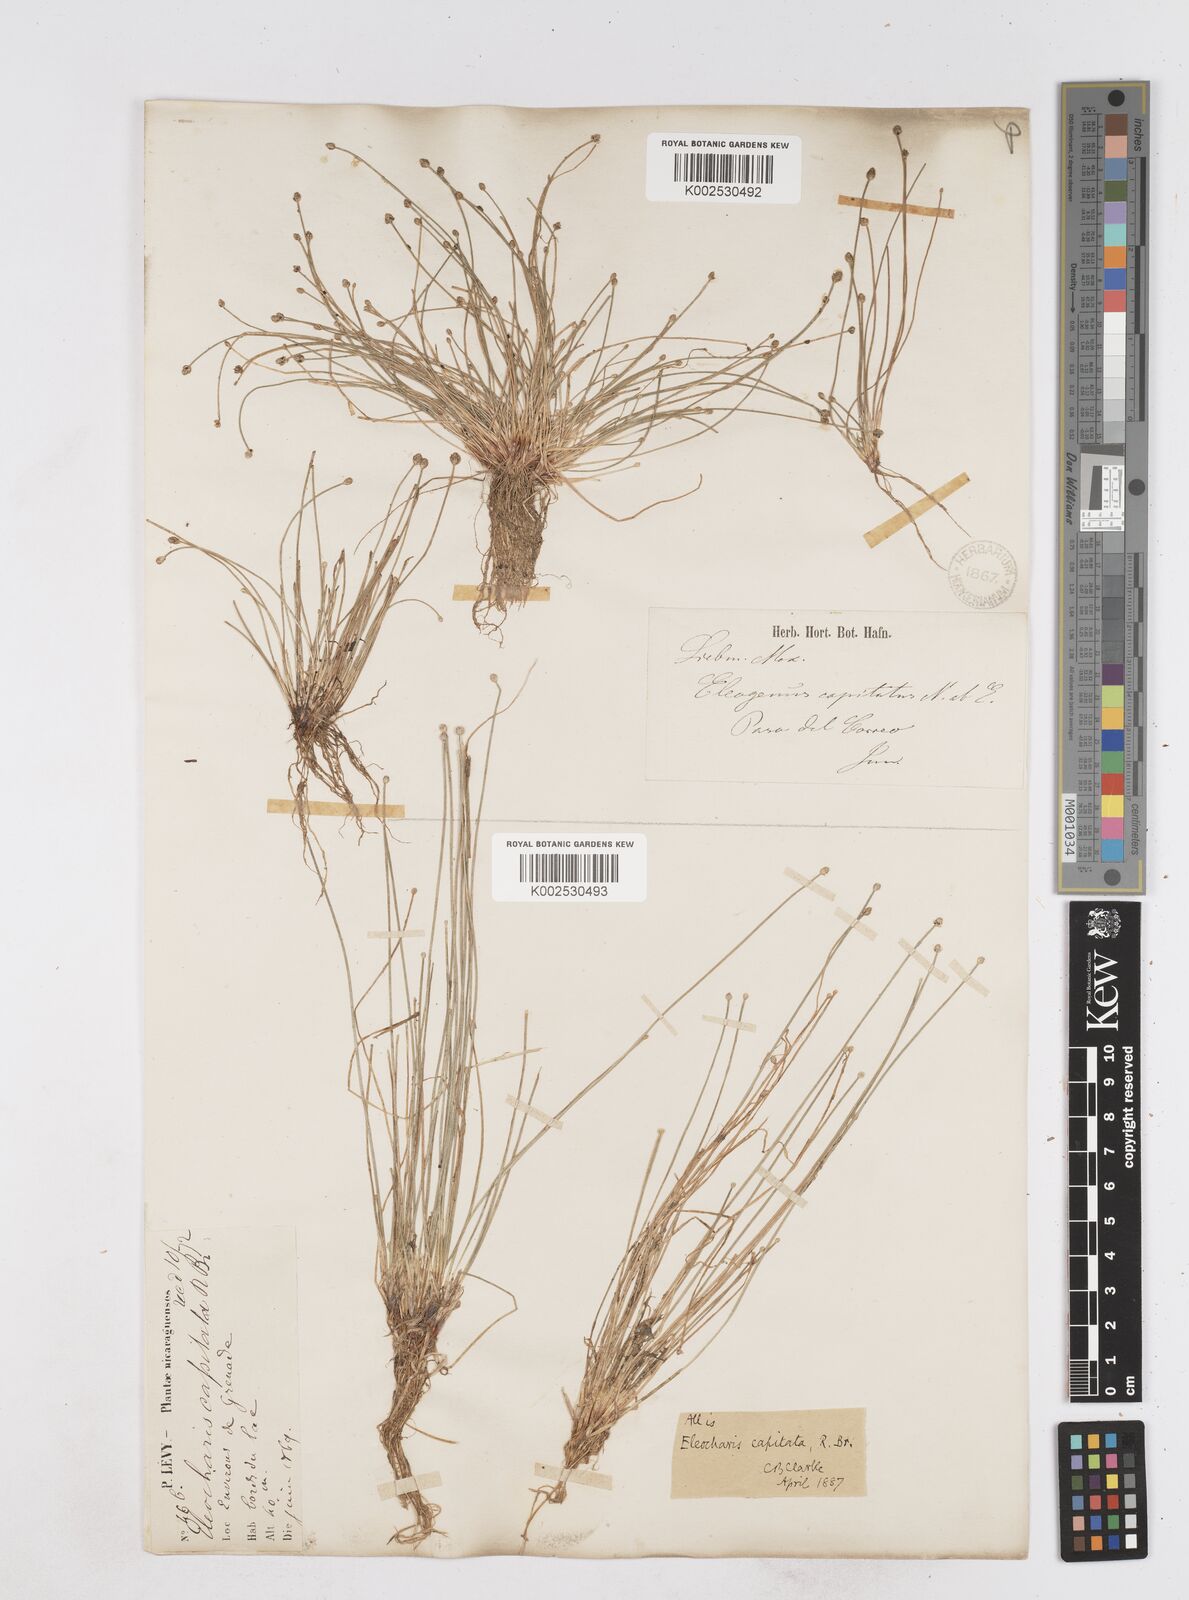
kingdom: Plantae
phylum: Tracheophyta
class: Liliopsida
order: Poales
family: Cyperaceae
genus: Eleocharis
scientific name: Eleocharis geniculata
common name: Canada spikesedge
